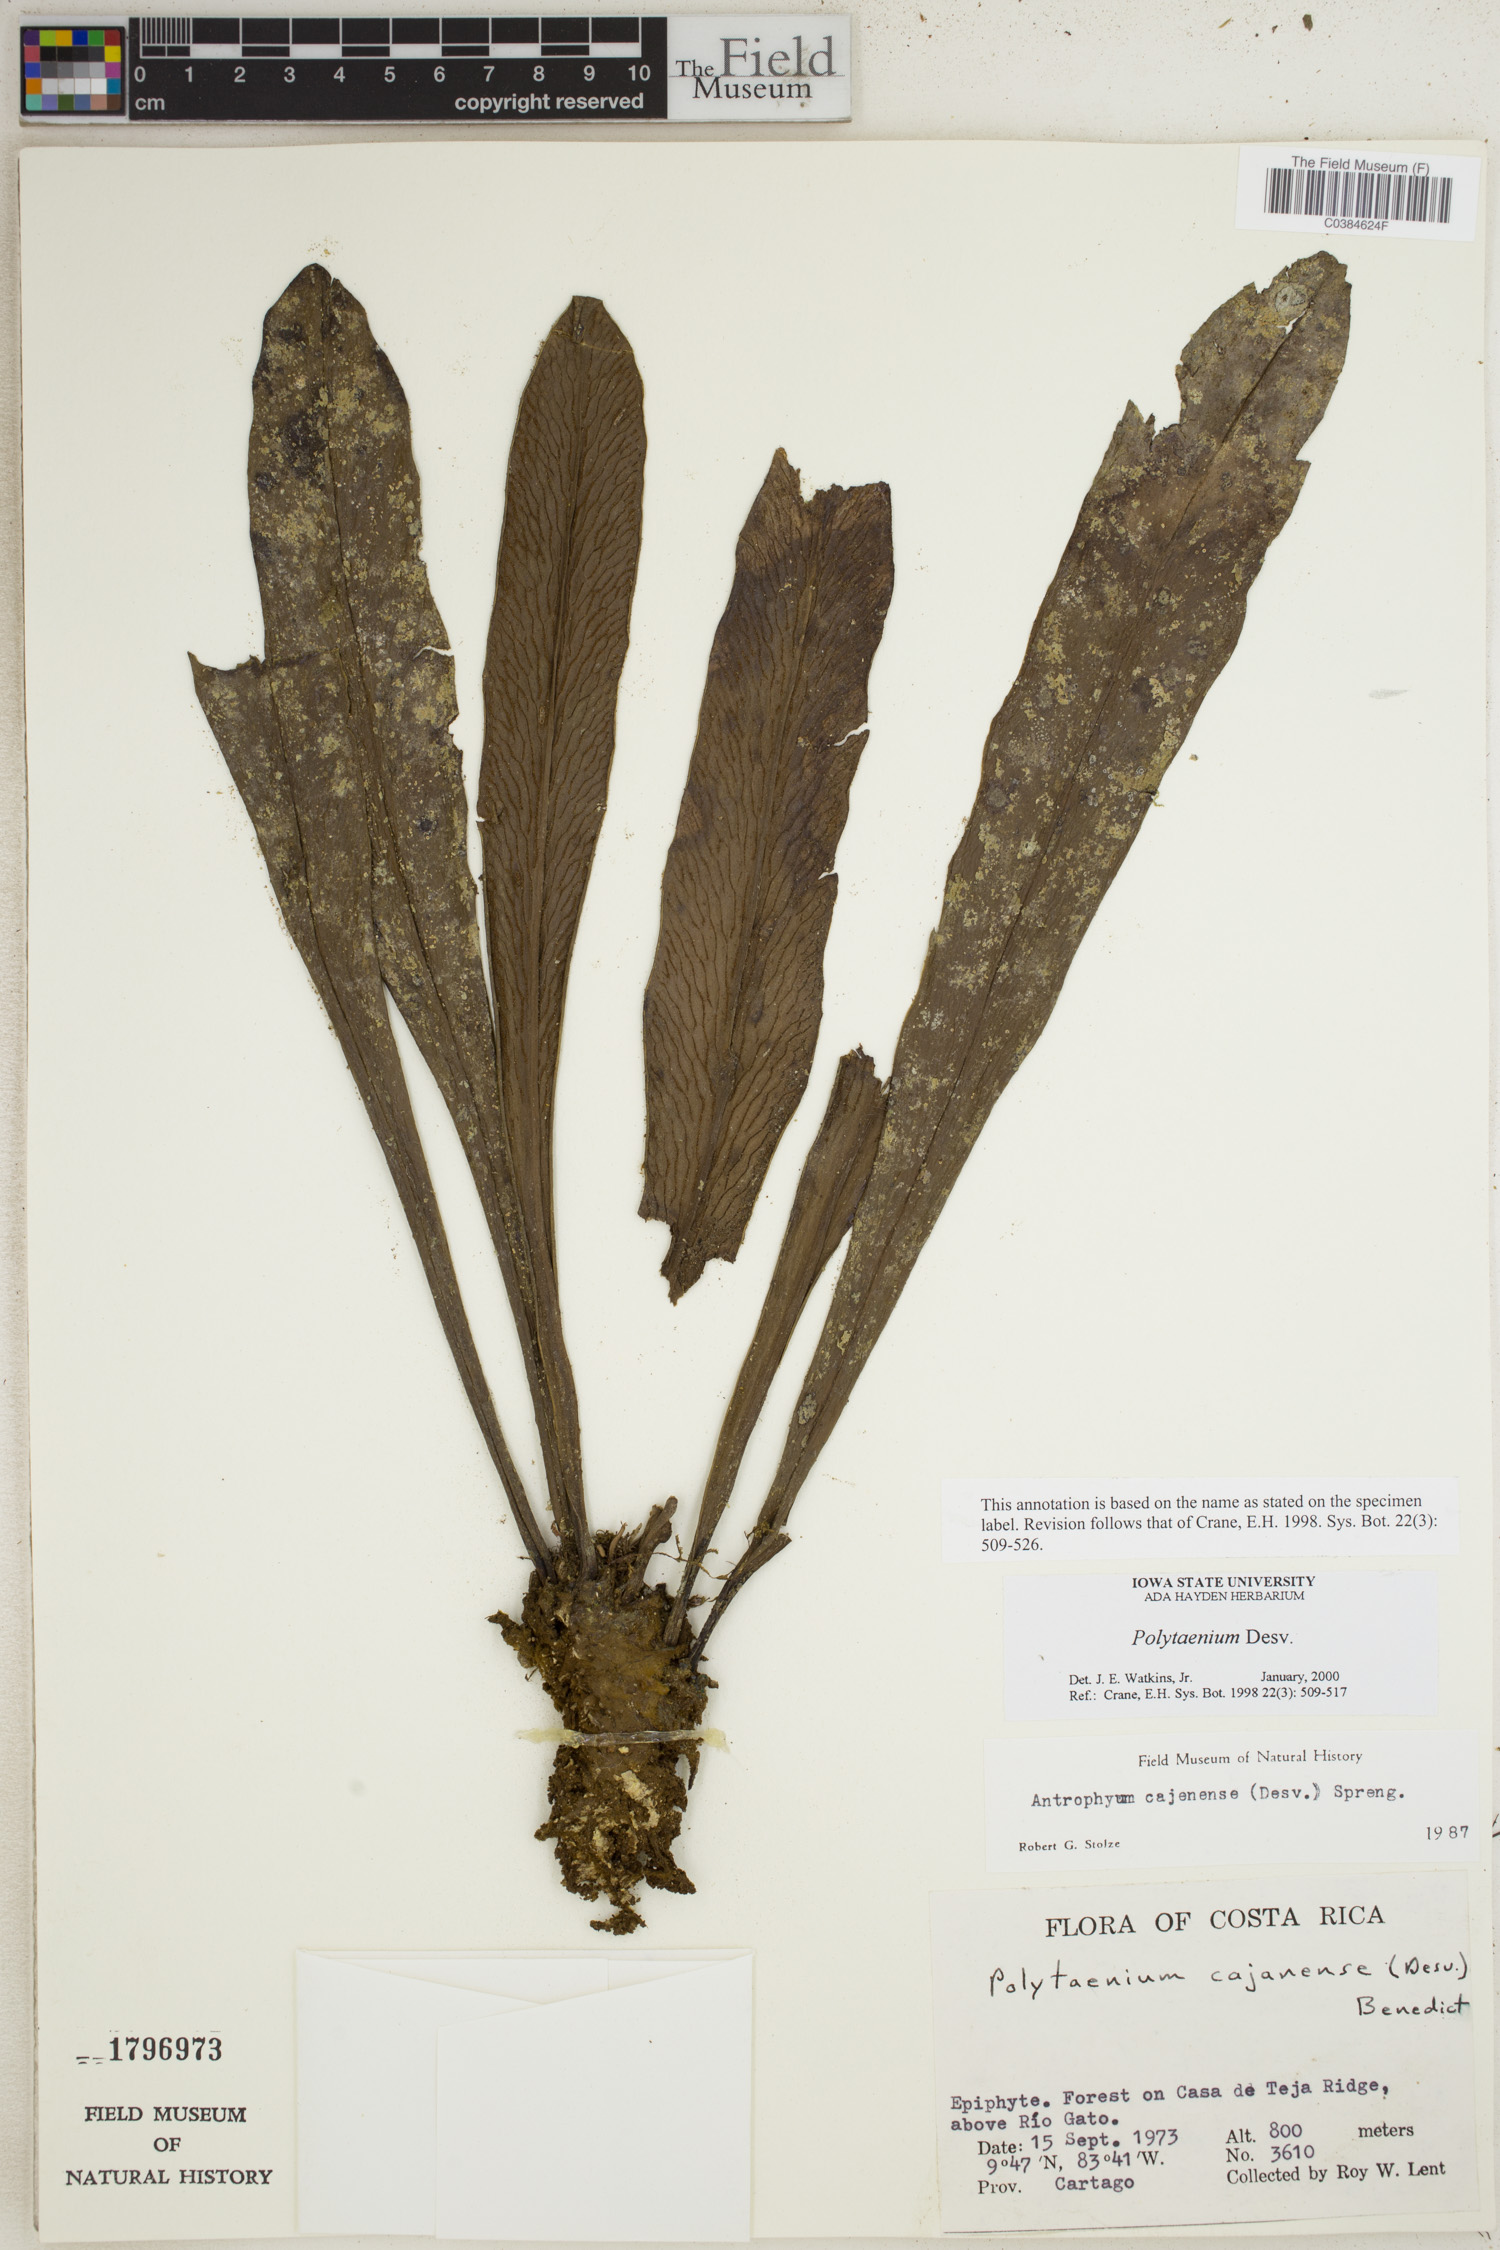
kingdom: Plantae
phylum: Tracheophyta
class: Polypodiopsida
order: Polypodiales
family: Pteridaceae
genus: Polytaenium
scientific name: Polytaenium
